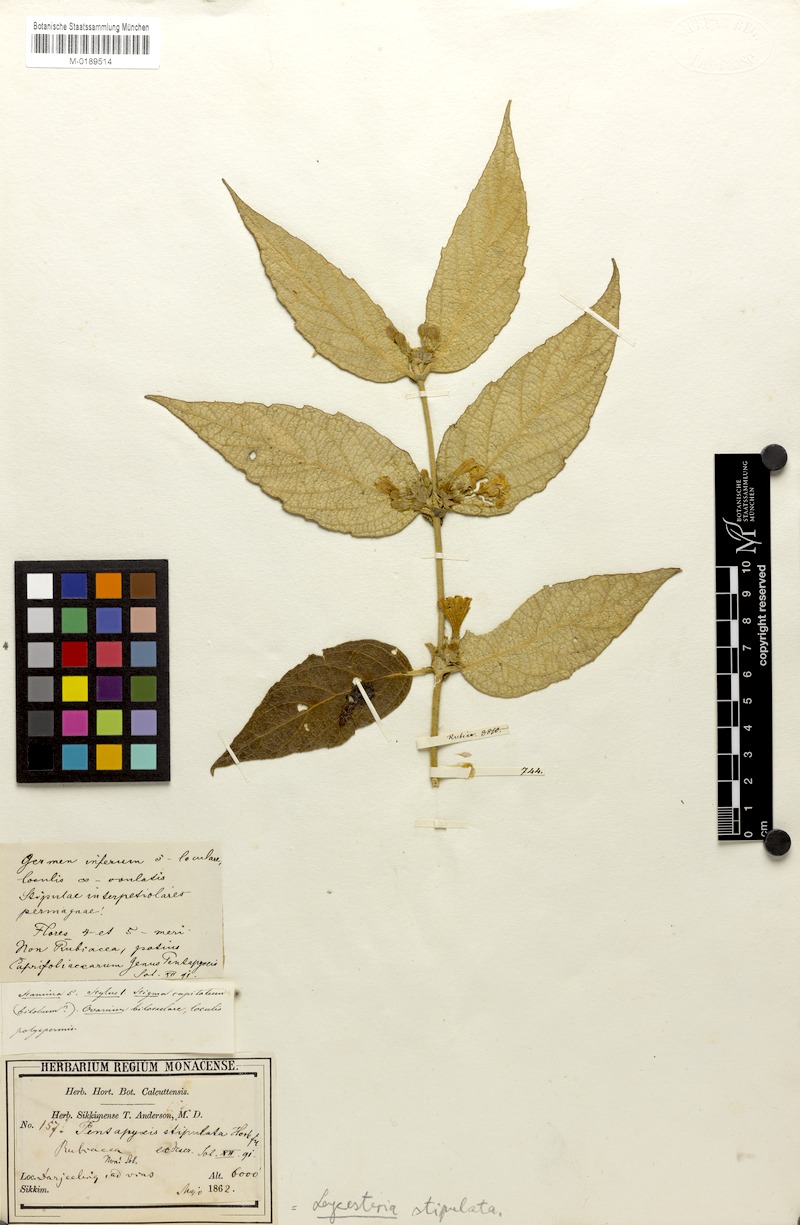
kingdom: Plantae
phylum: Tracheophyta
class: Magnoliopsida
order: Dipsacales
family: Caprifoliaceae
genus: Leycesteria
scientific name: Leycesteria stipulata
